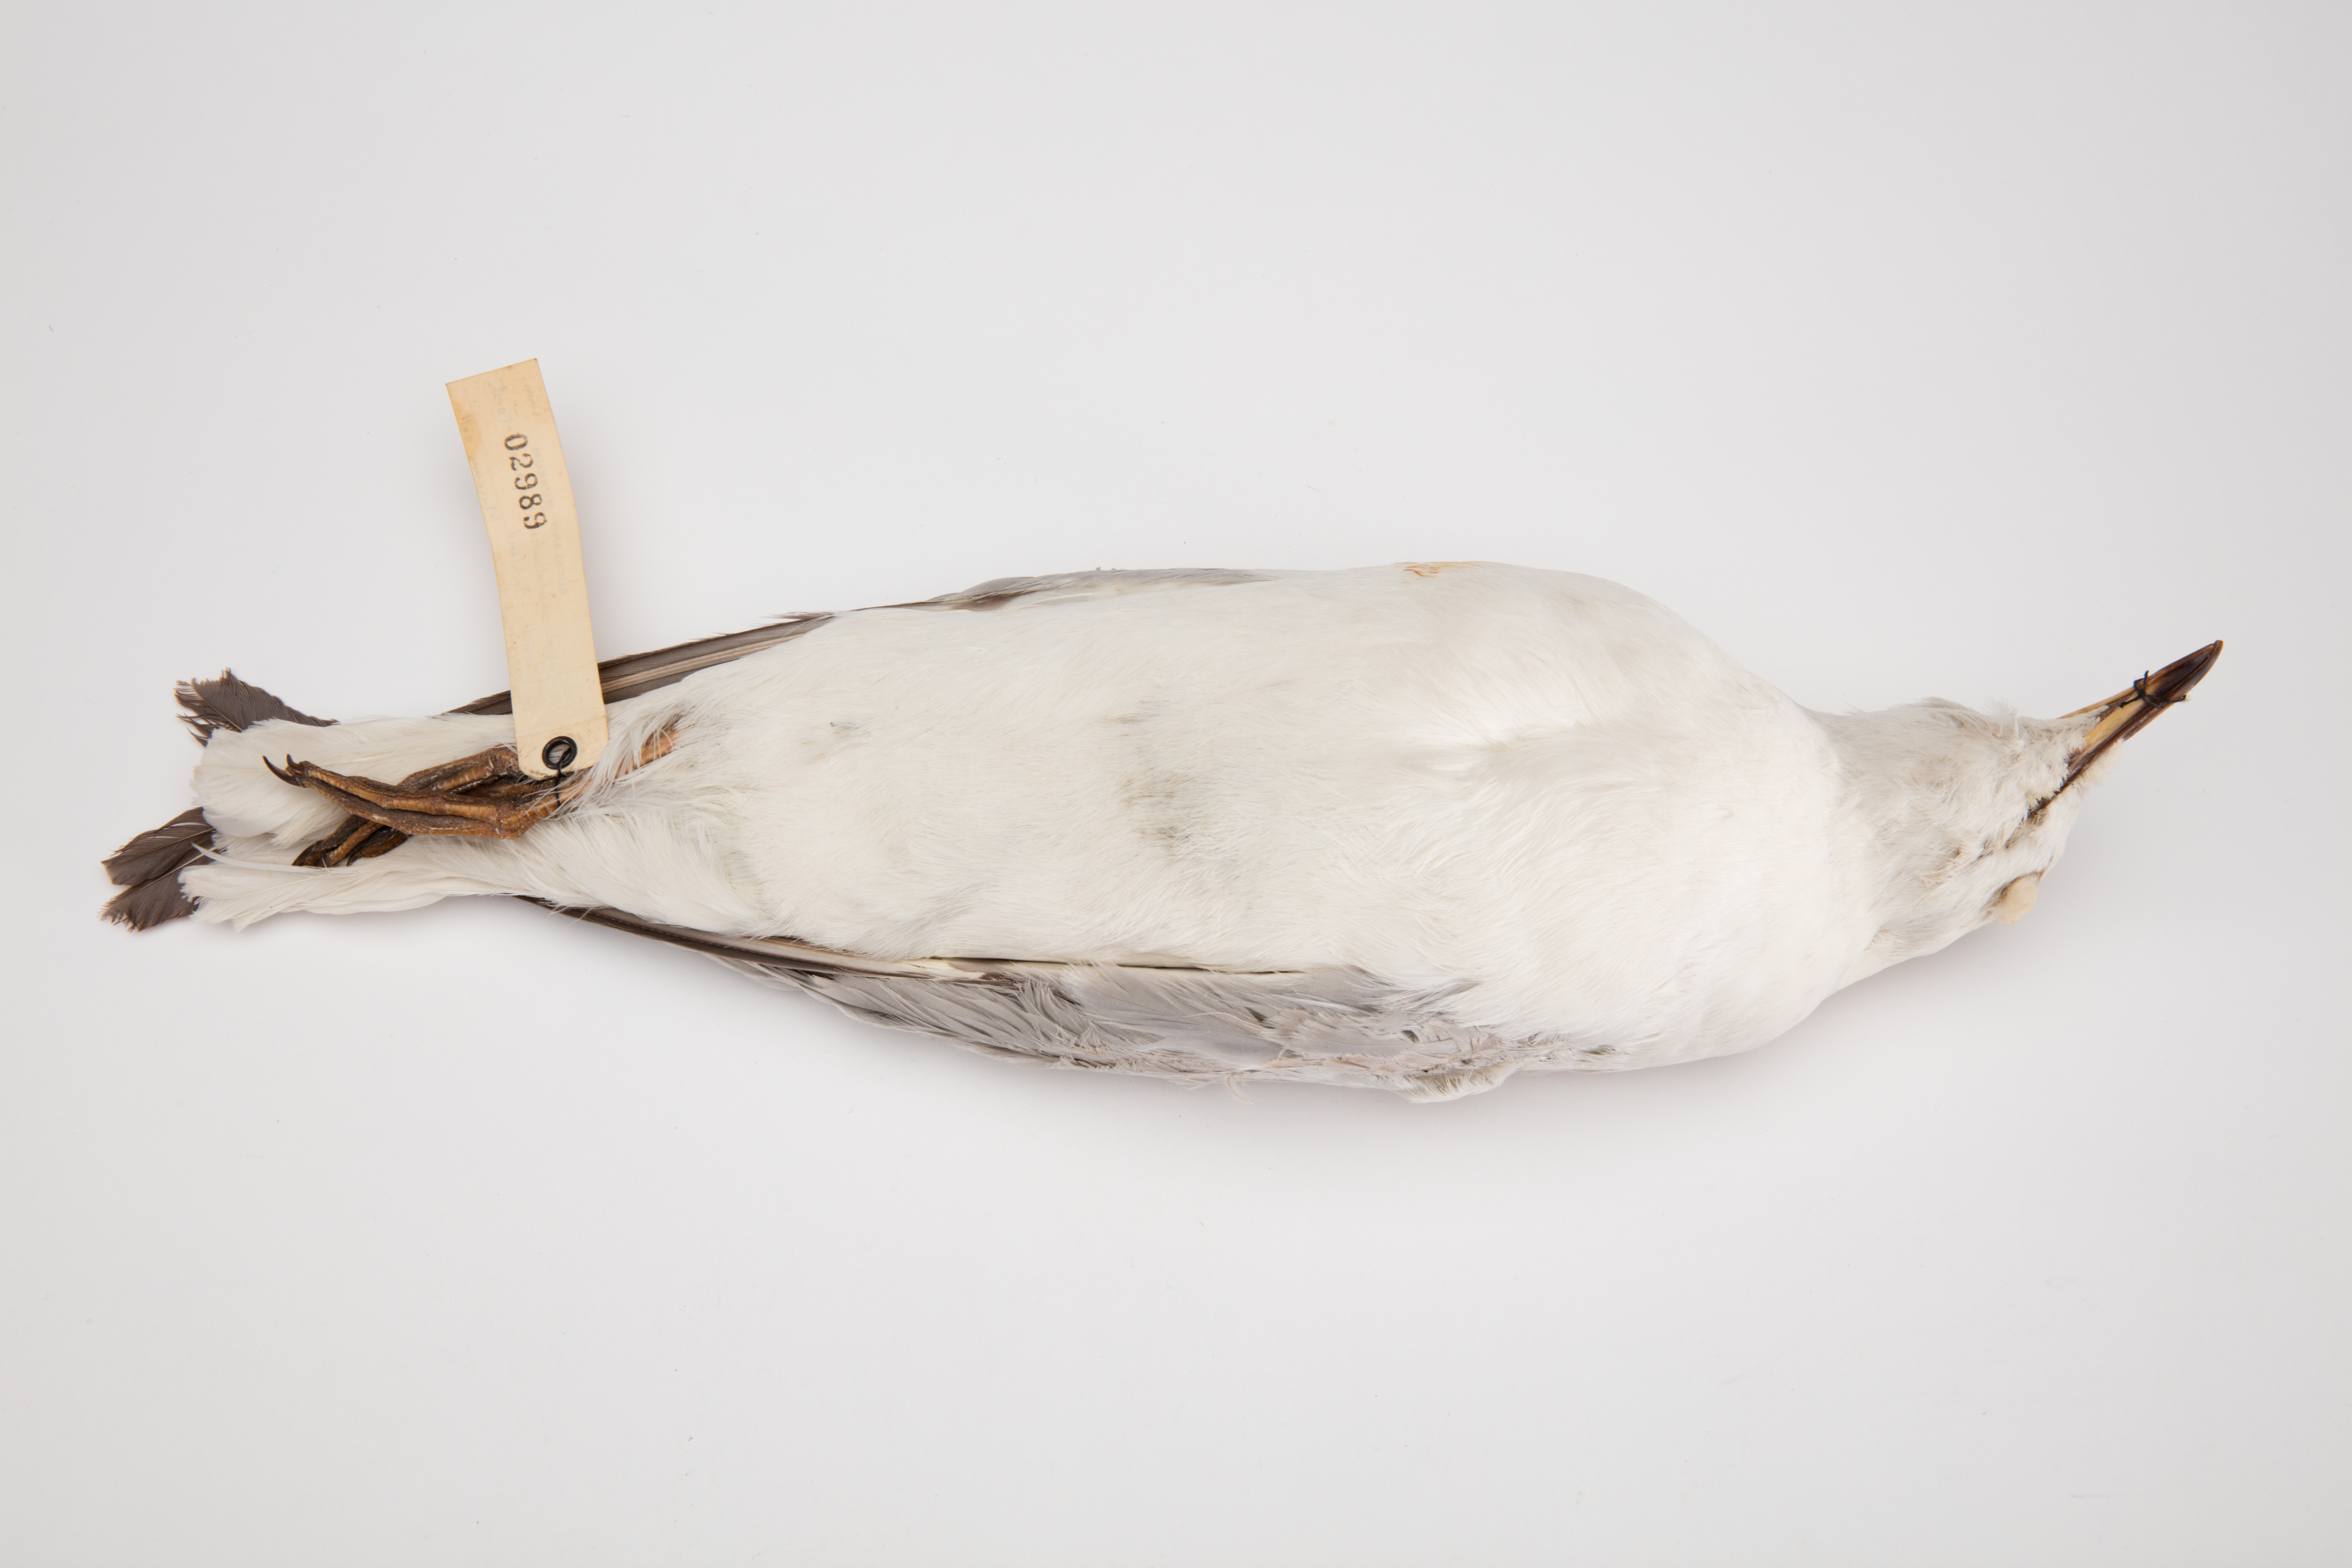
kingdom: Animalia
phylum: Chordata
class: Aves
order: Charadriiformes
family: Laridae
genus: Chroicocephalus
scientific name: Chroicocephalus novaehollandiae
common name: Silver gull
